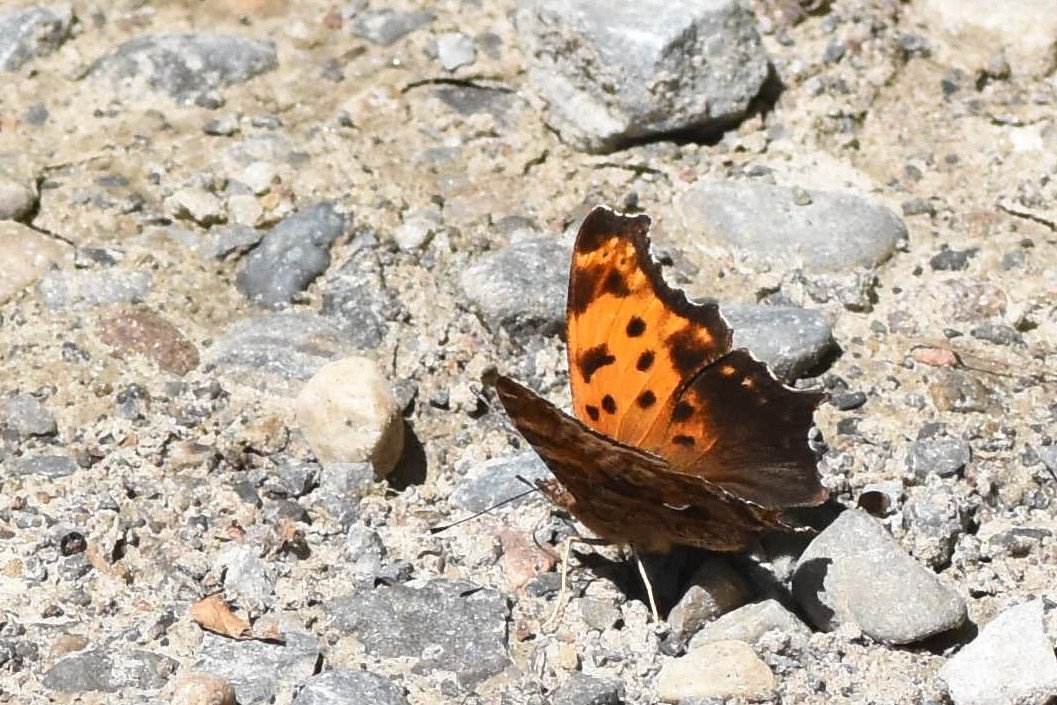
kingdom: Animalia
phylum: Arthropoda
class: Insecta
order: Lepidoptera
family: Nymphalidae
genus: Polygonia
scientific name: Polygonia comma
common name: Eastern Comma
